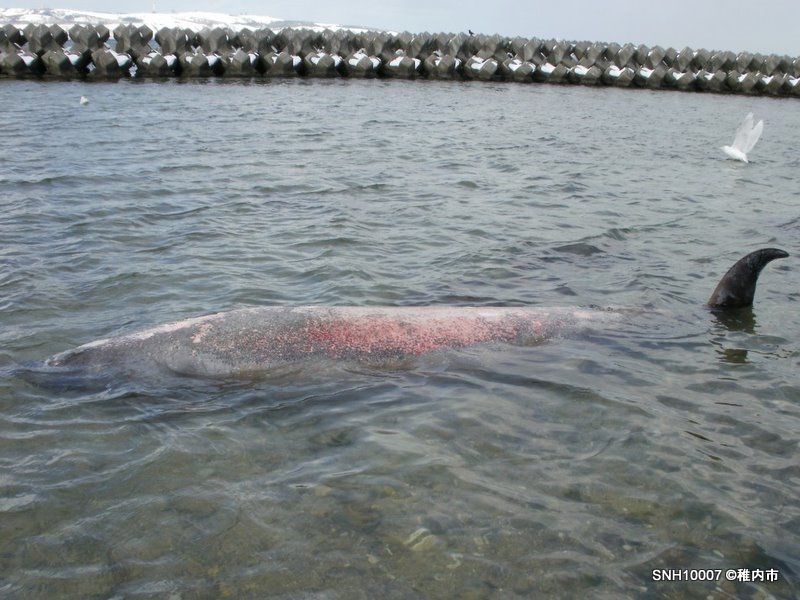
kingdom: Animalia
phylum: Chordata
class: Mammalia
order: Cetacea
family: Hyperoodontidae
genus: Mesoplodon
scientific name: Mesoplodon stejnegeri
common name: Stejneger's beaked whale
